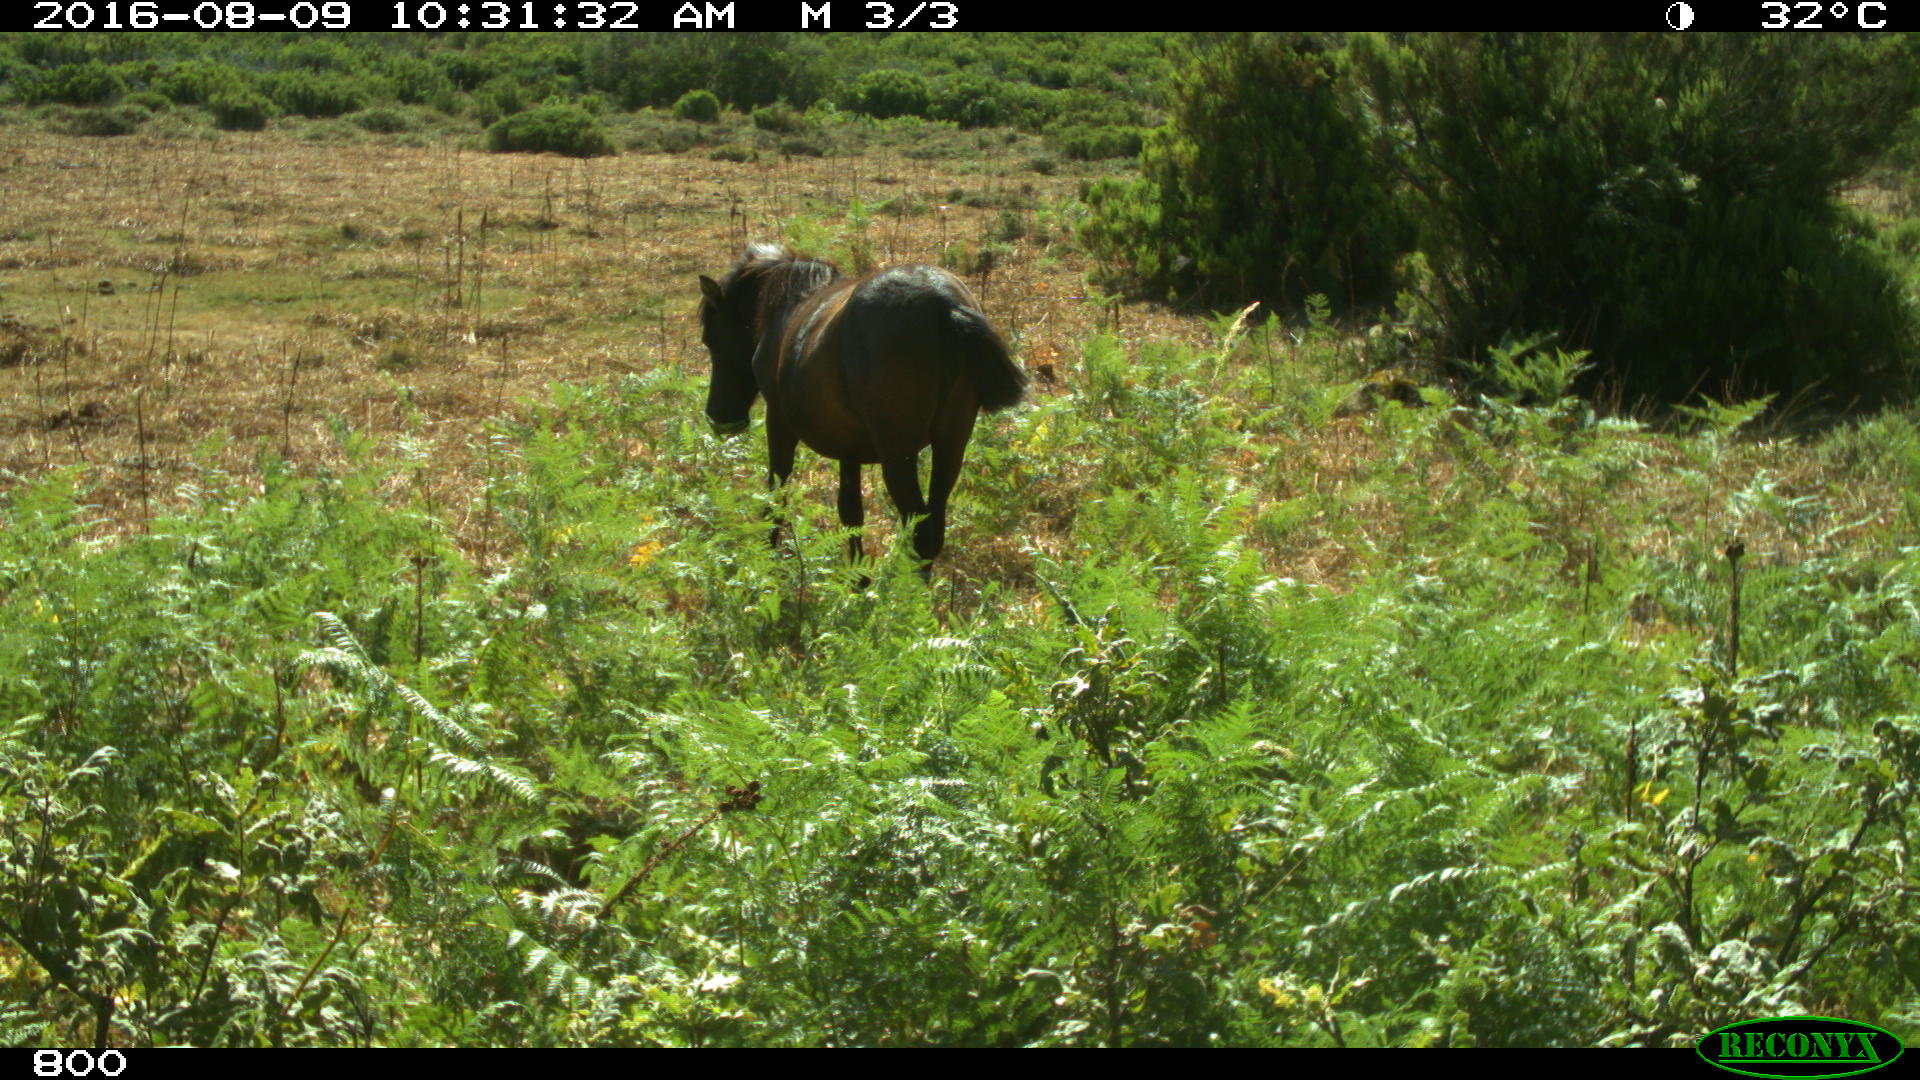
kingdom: Animalia
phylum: Chordata
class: Mammalia
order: Perissodactyla
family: Equidae
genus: Equus
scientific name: Equus caballus
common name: Horse
